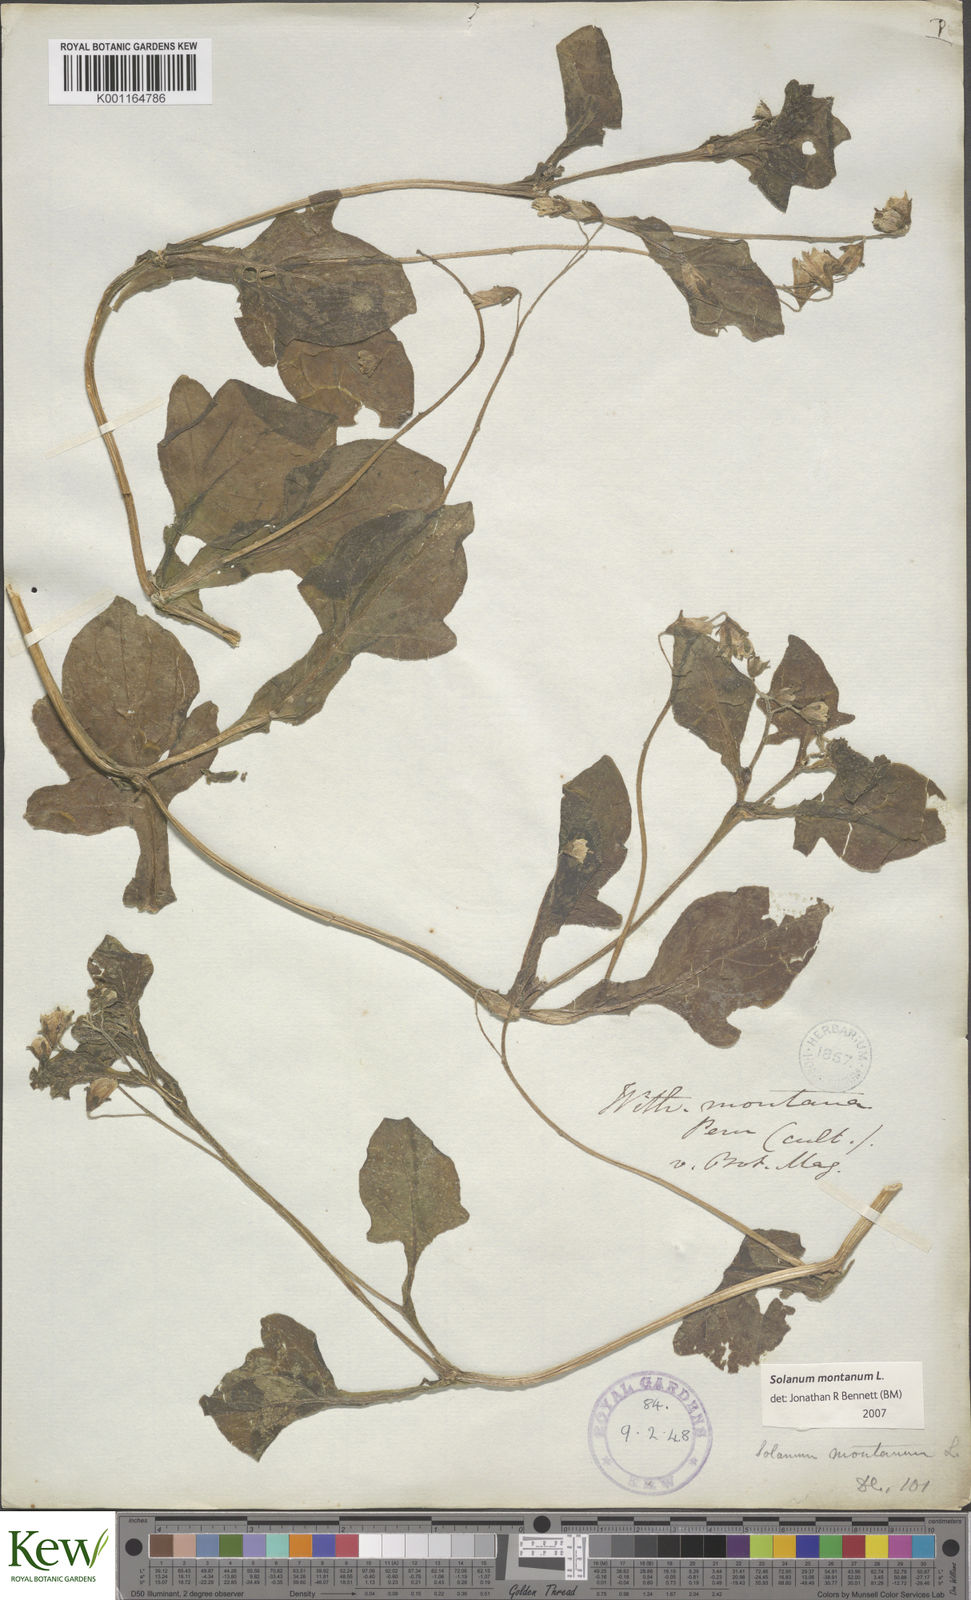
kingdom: Plantae
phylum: Tracheophyta
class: Magnoliopsida
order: Solanales
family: Solanaceae
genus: Solanum
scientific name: Solanum montanum
